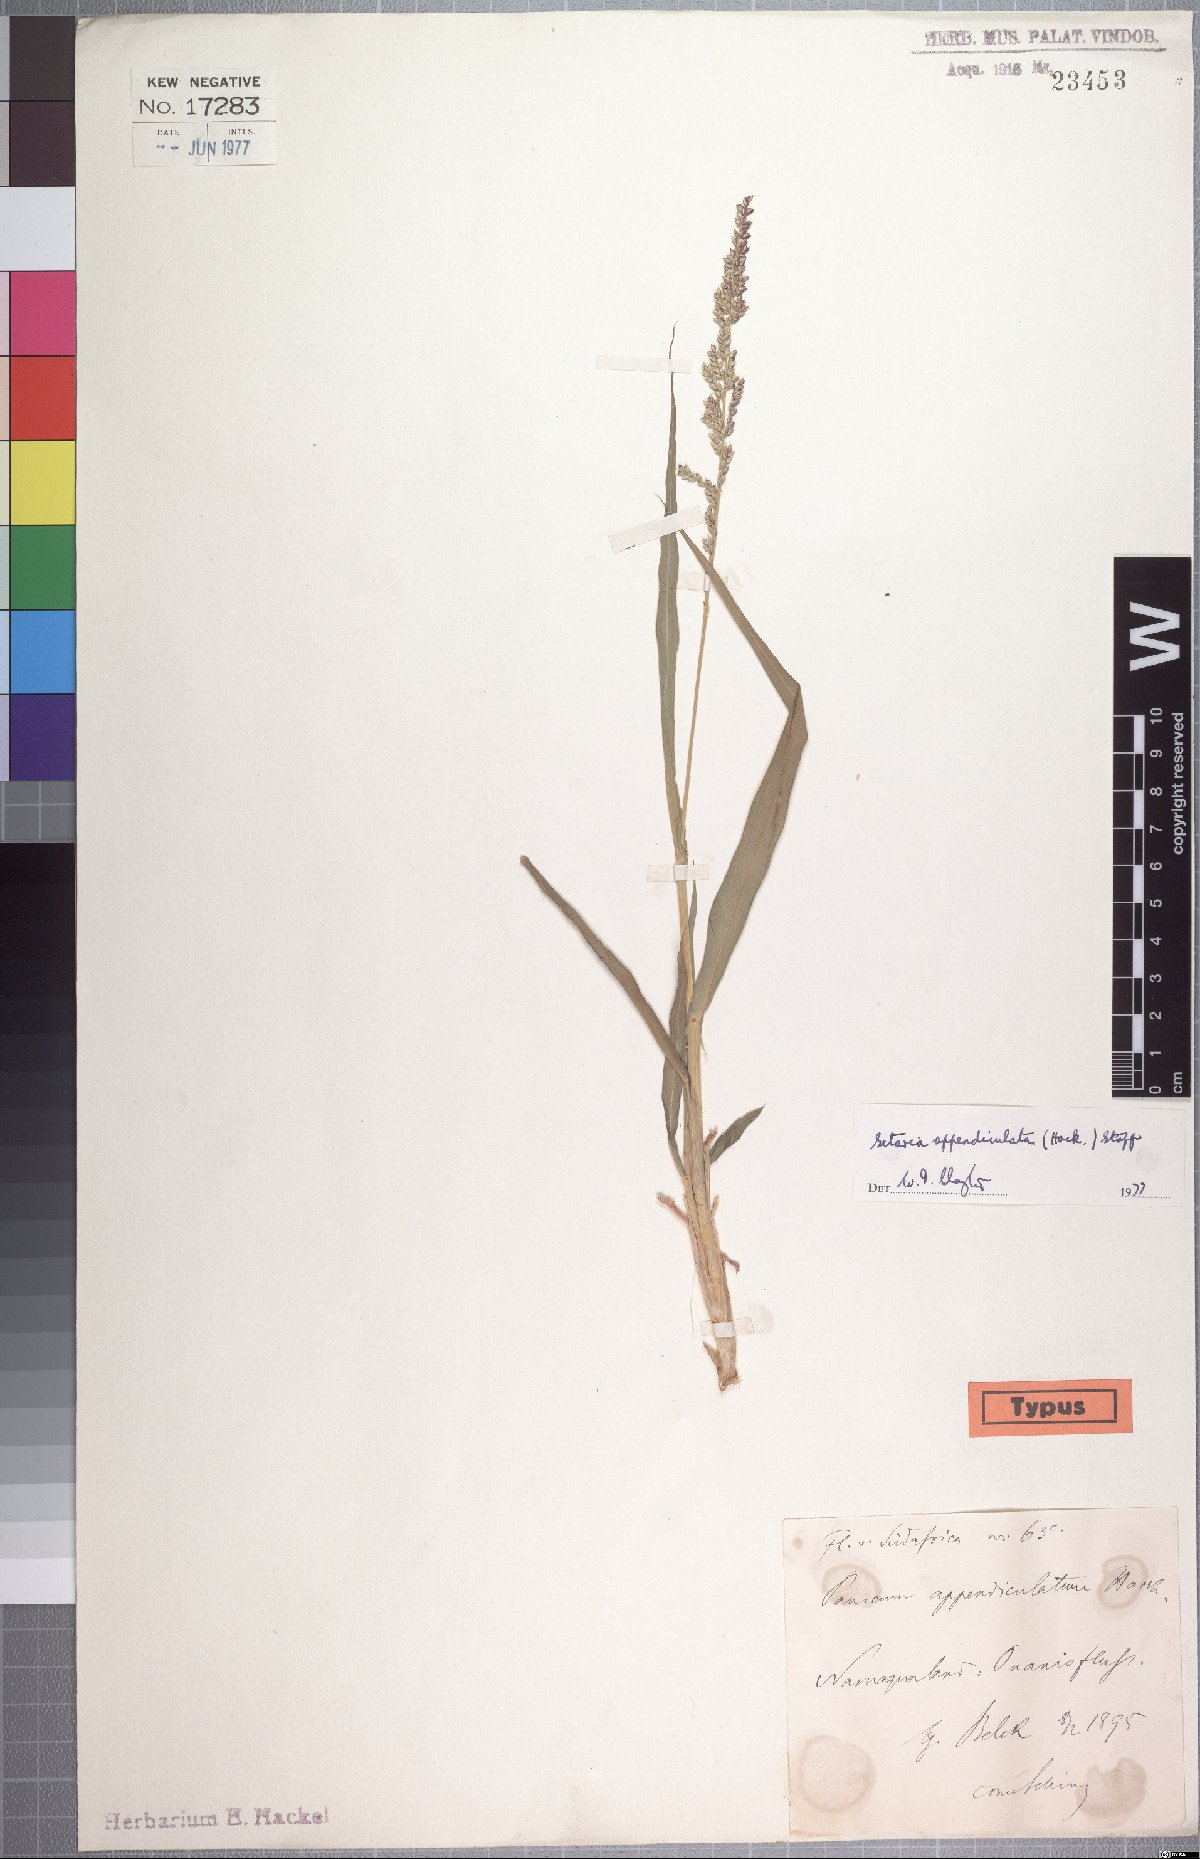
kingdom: Plantae
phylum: Tracheophyta
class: Liliopsida
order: Poales
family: Poaceae
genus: Setaria
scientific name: Setaria appendiculata
